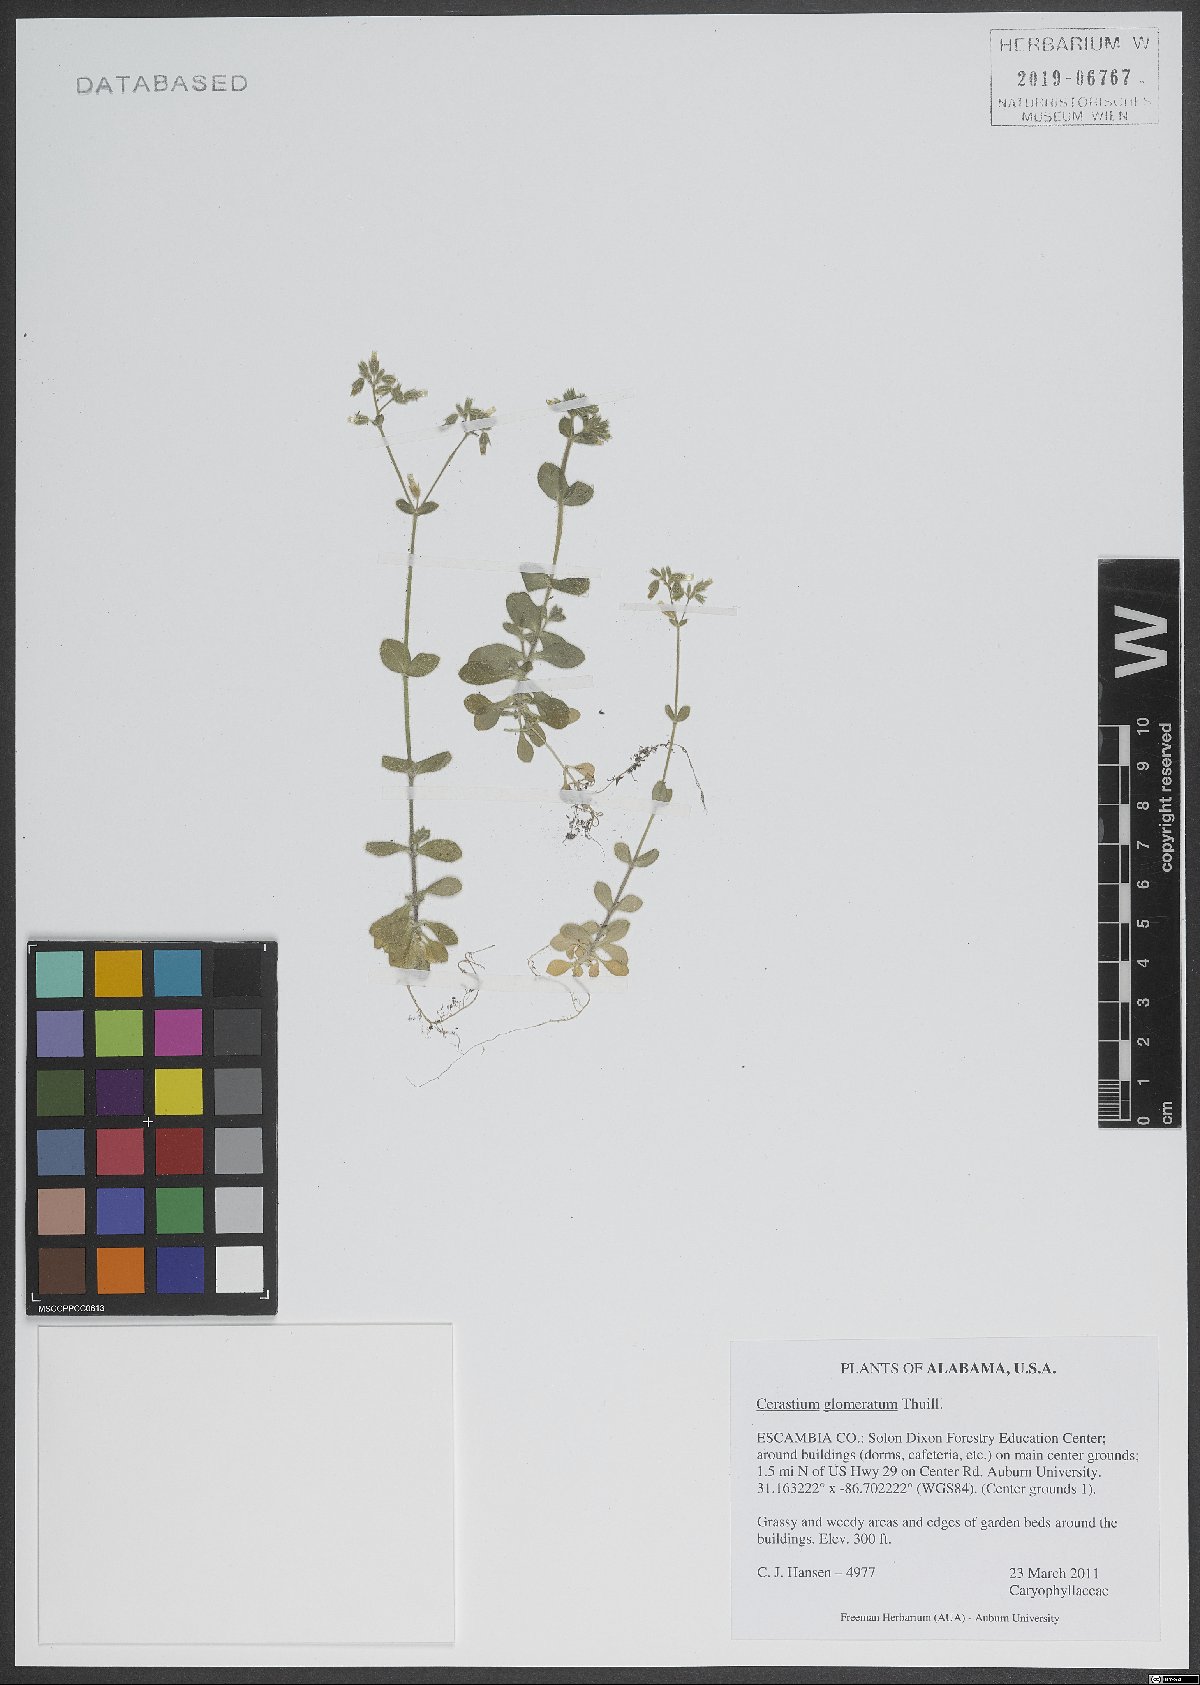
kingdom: Plantae
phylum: Tracheophyta
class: Magnoliopsida
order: Caryophyllales
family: Caryophyllaceae
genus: Cerastium
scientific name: Cerastium glomeratum
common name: Sticky chickweed
